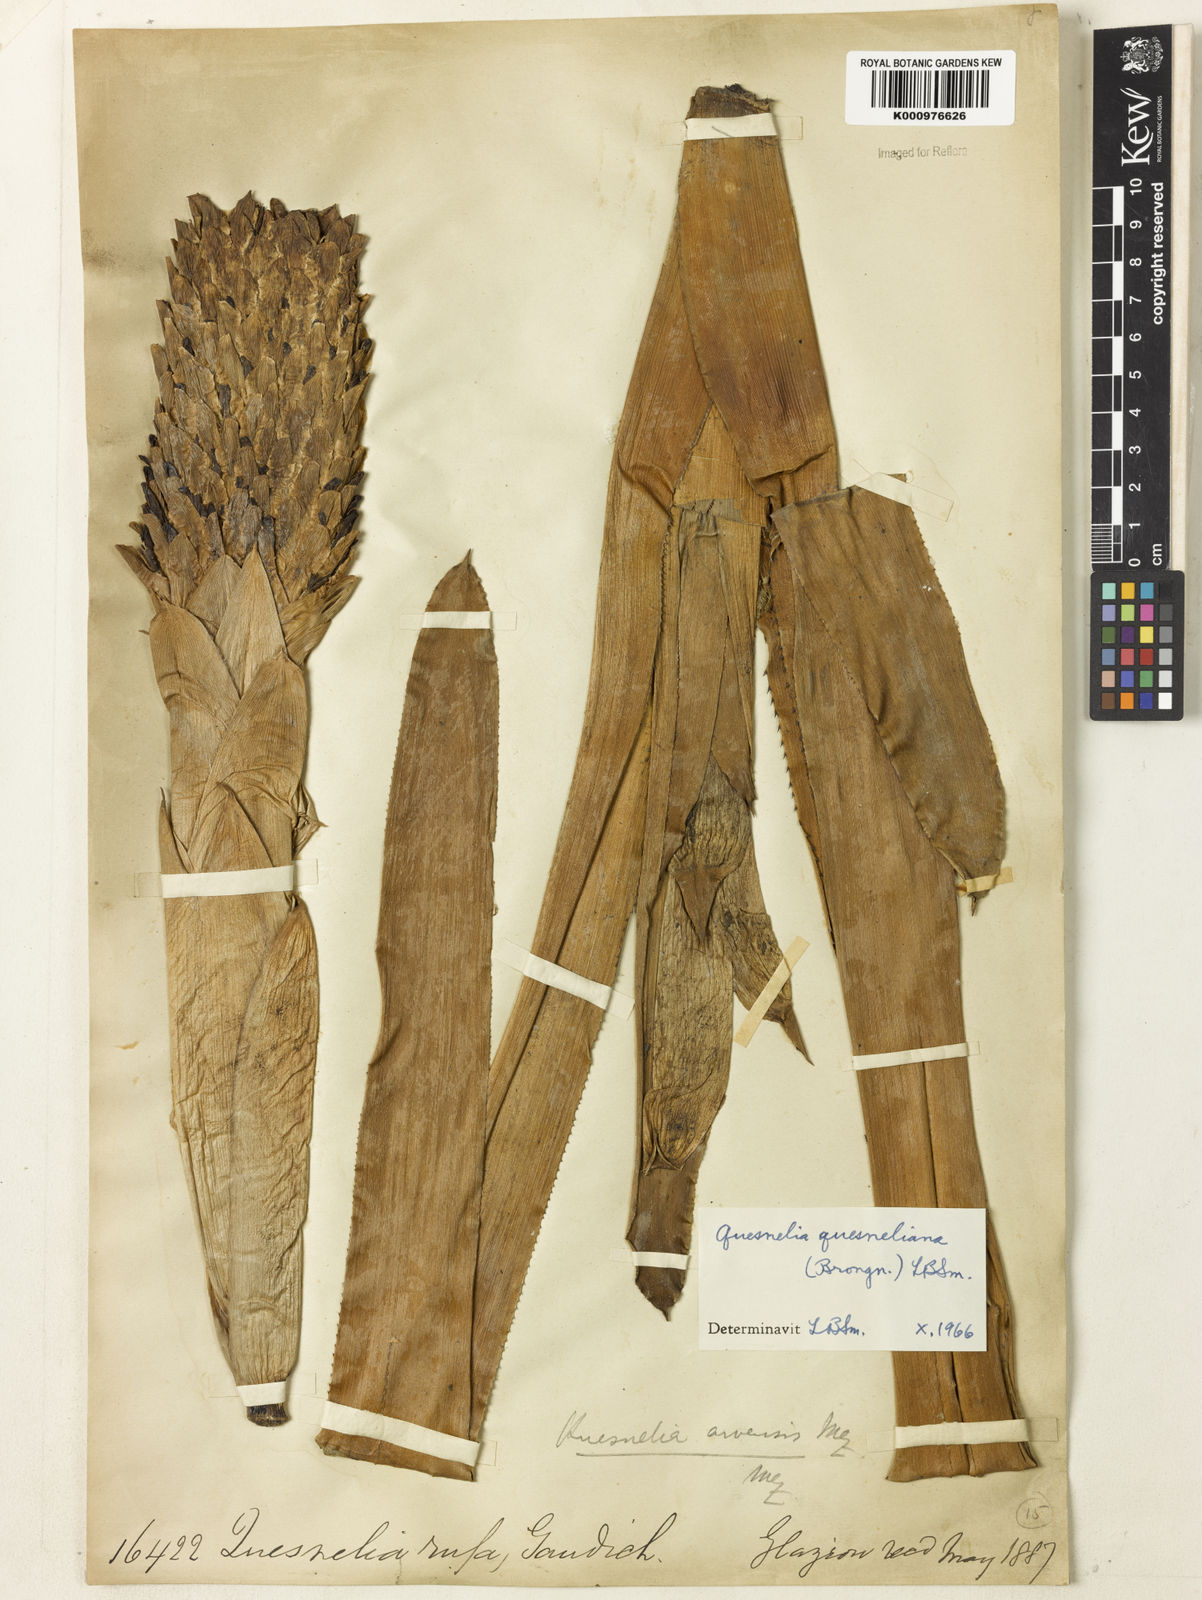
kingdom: Plantae
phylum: Tracheophyta
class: Liliopsida
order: Poales
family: Bromeliaceae
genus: Quesnelia
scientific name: Quesnelia quesneliana
